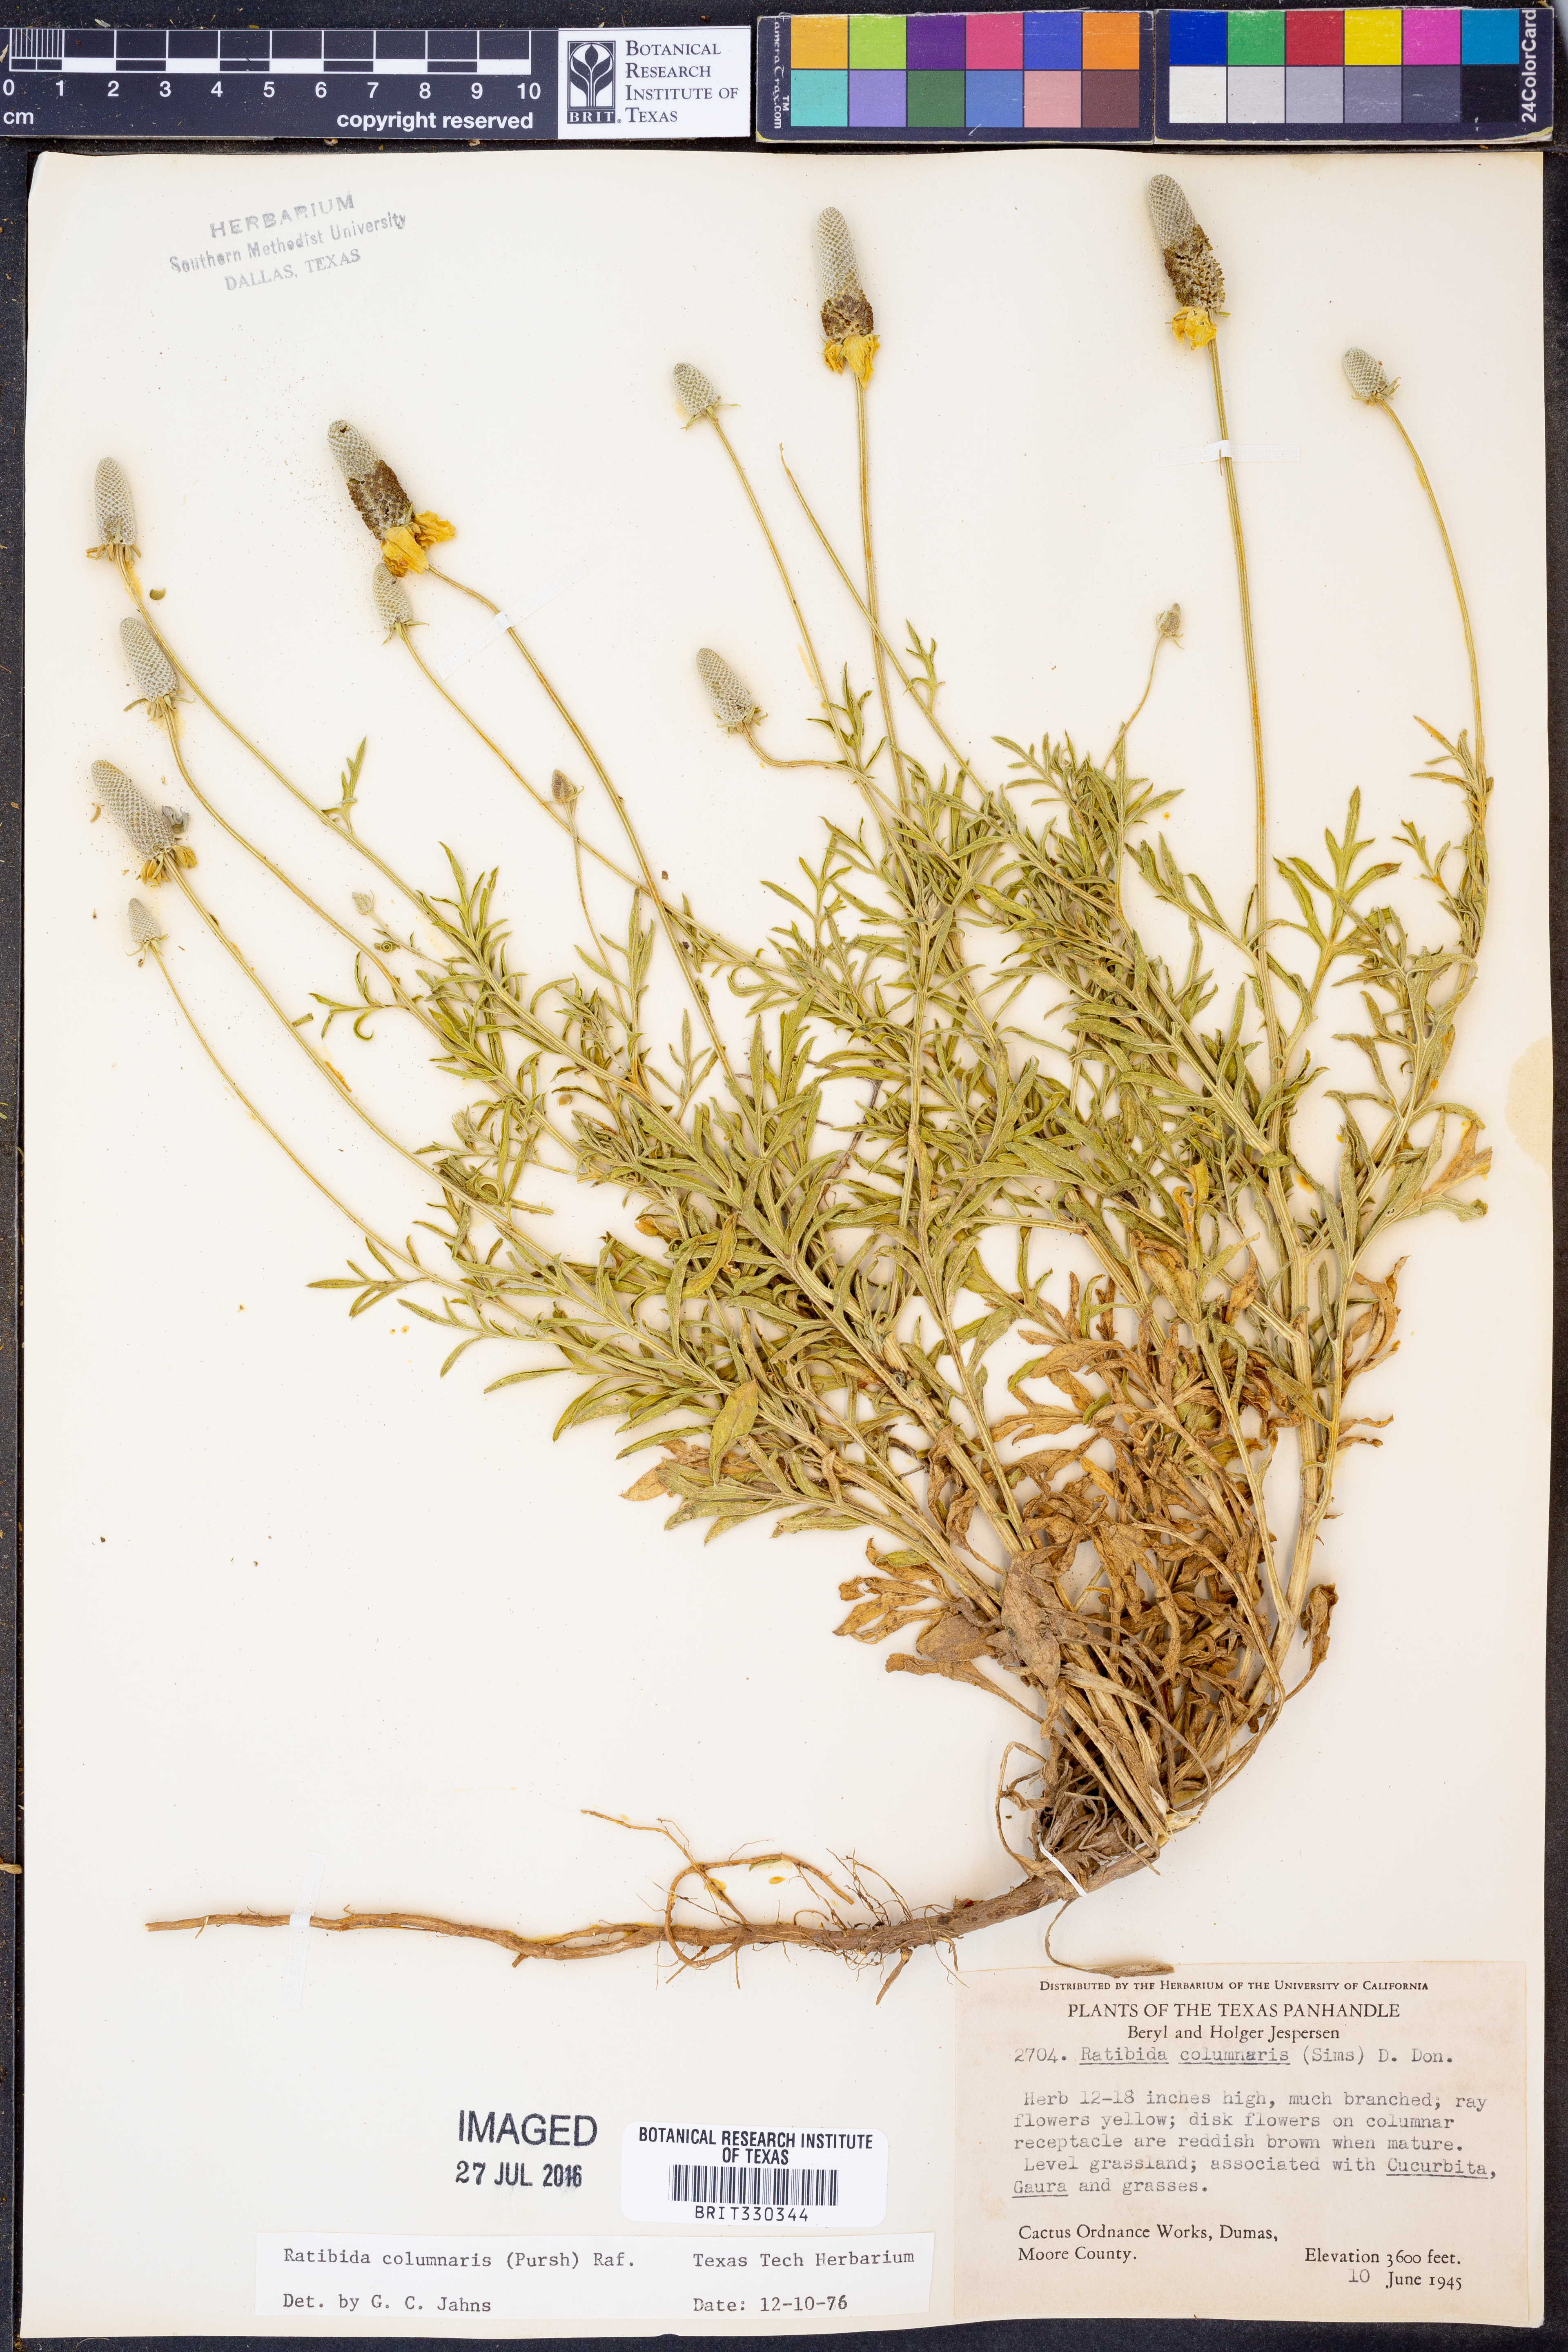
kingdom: Plantae
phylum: Tracheophyta
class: Magnoliopsida
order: Asterales
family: Asteraceae
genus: Ratibida
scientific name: Ratibida columnifera
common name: Prairie coneflower
